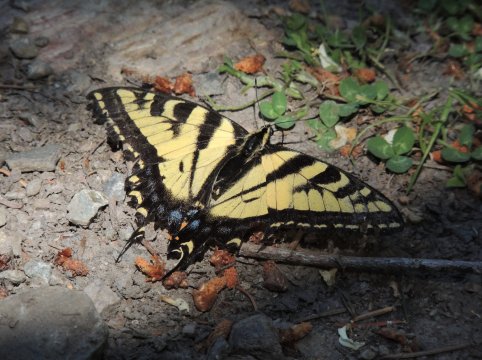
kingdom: Animalia
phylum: Arthropoda
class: Insecta
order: Lepidoptera
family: Papilionidae
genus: Pterourus
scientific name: Pterourus rutulus
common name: Western Tiger Swallowtail
